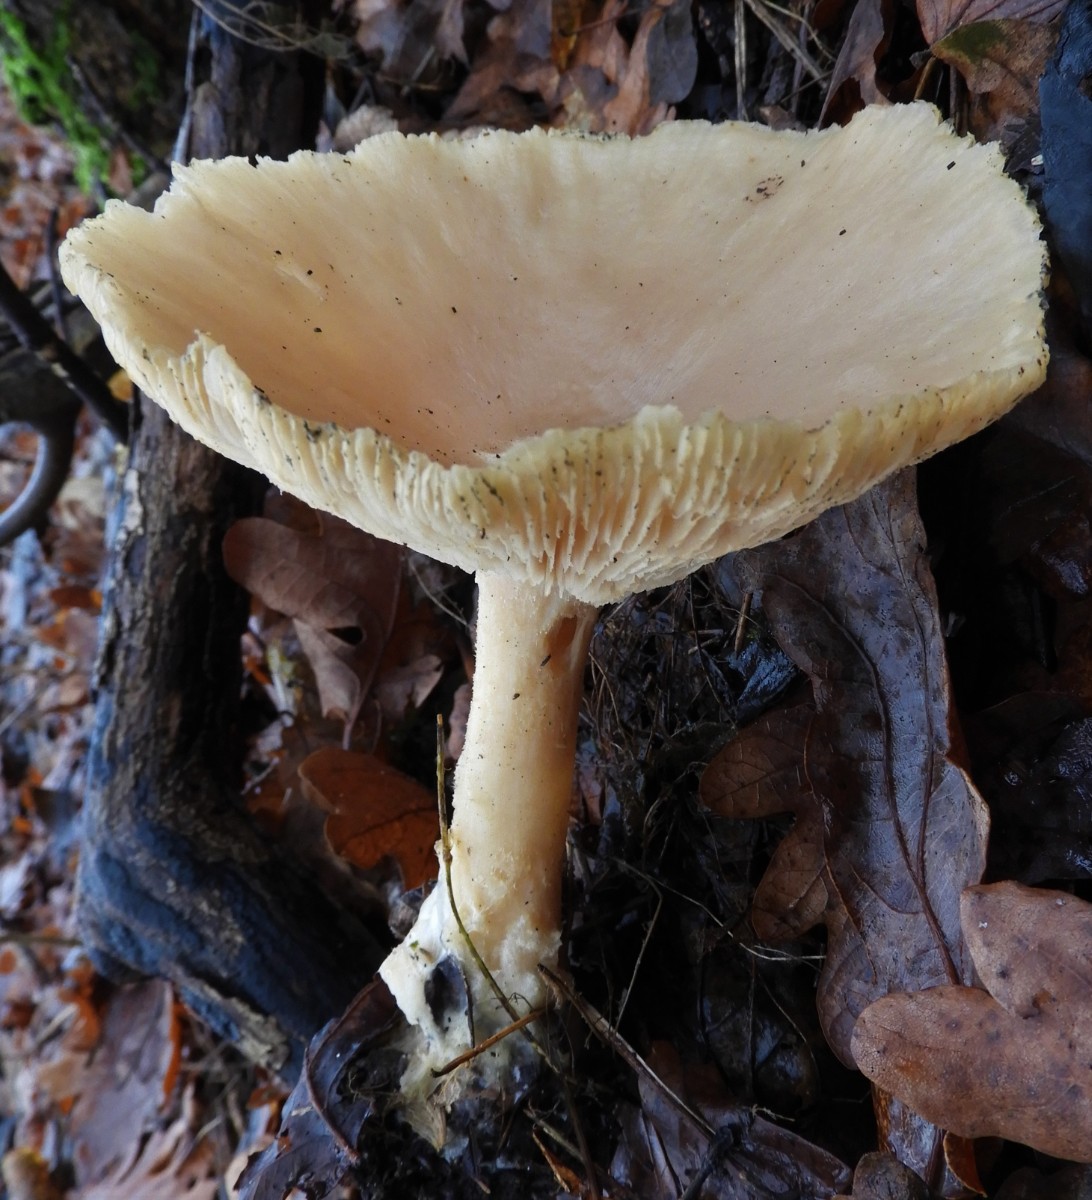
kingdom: Fungi
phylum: Basidiomycota
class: Agaricomycetes
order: Agaricales
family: Tricholomataceae
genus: Infundibulicybe
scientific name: Infundibulicybe geotropa
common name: stor tragthat
